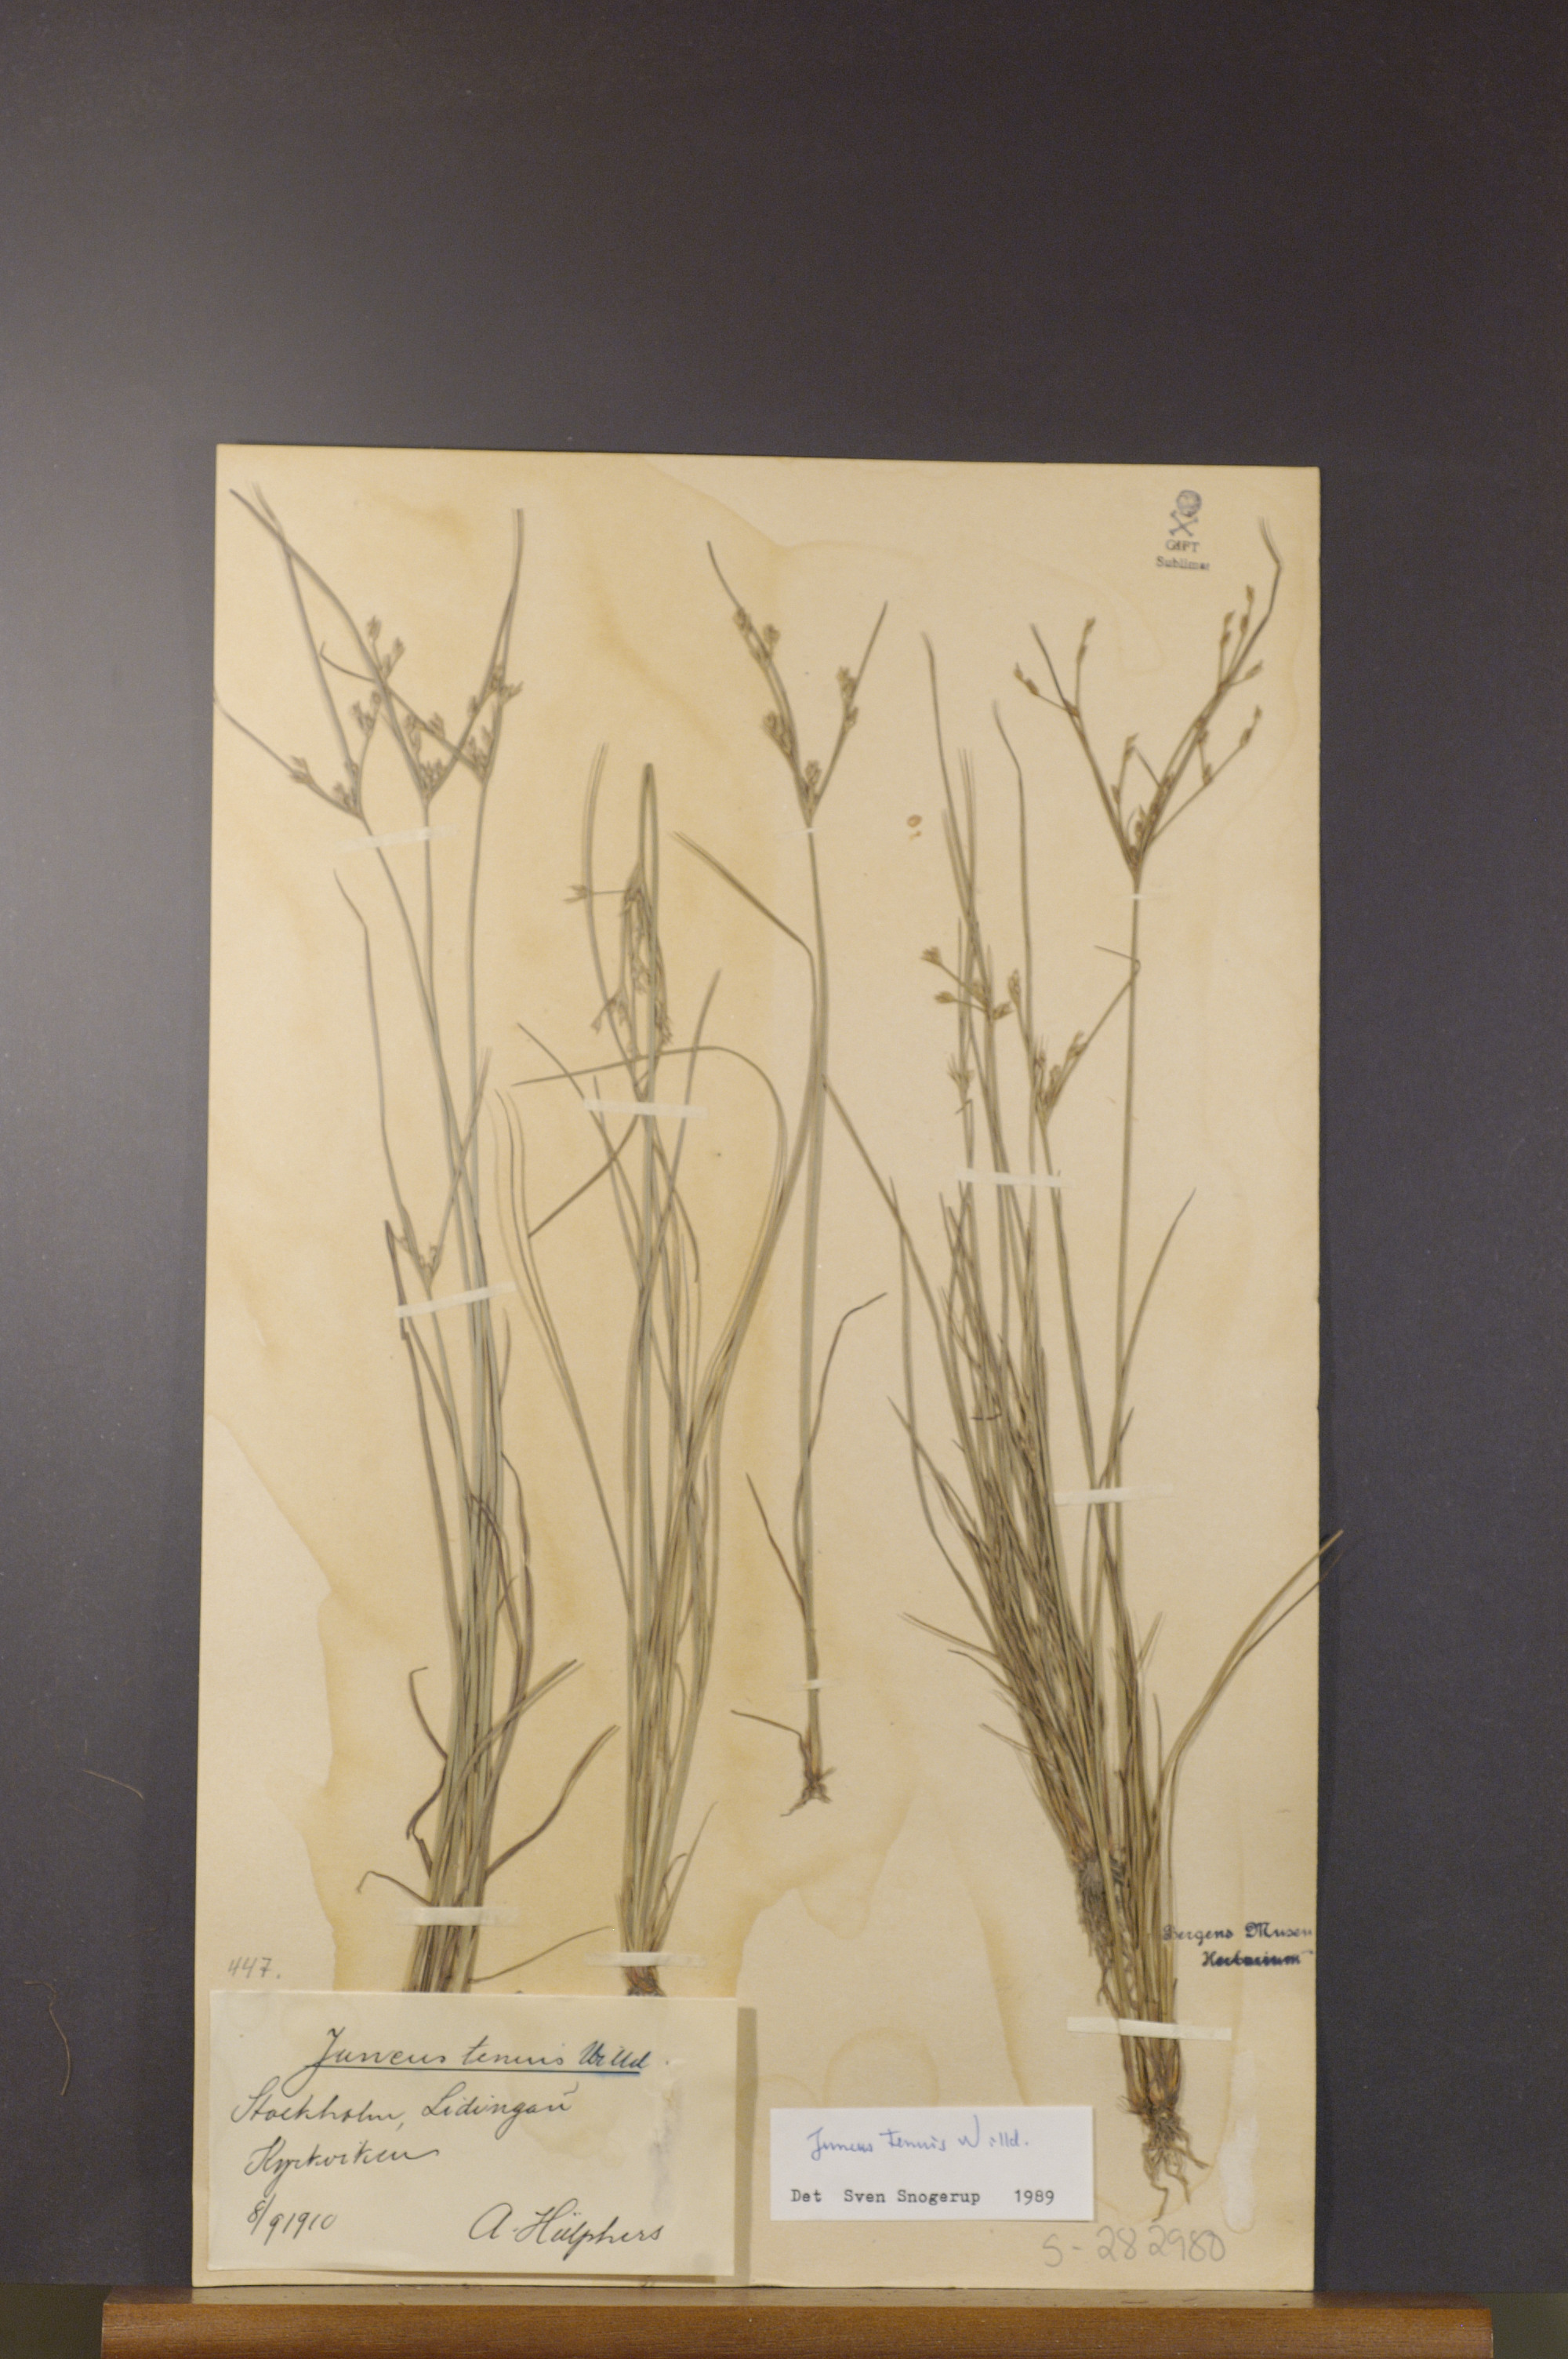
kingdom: Plantae
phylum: Tracheophyta
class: Liliopsida
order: Poales
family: Juncaceae
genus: Juncus
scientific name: Juncus tenuis
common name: Slender rush
